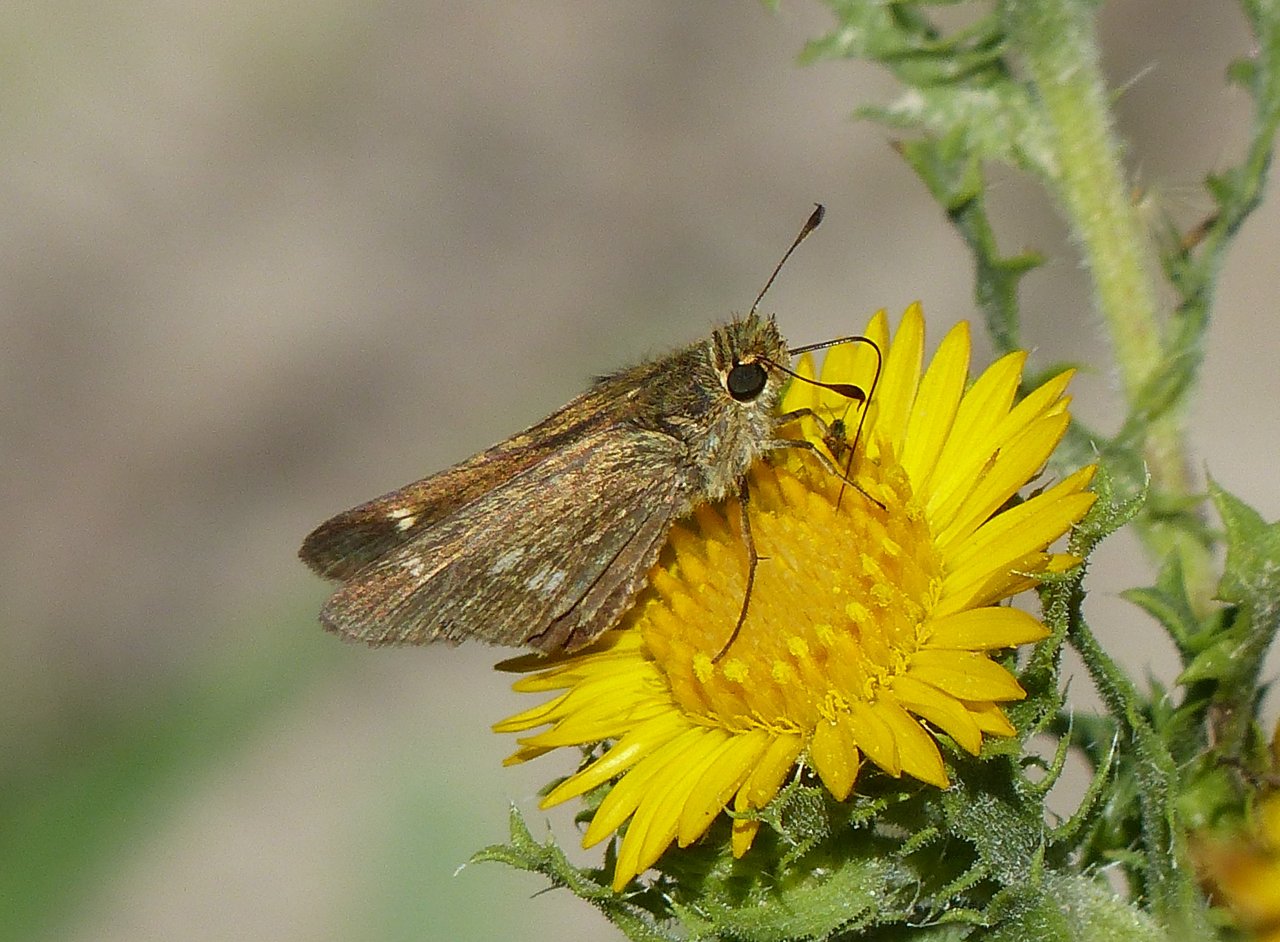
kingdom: Animalia
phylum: Arthropoda
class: Insecta
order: Lepidoptera
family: Hesperiidae
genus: Panoquina
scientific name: Panoquina panoquinoides
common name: Obscure Skipper
